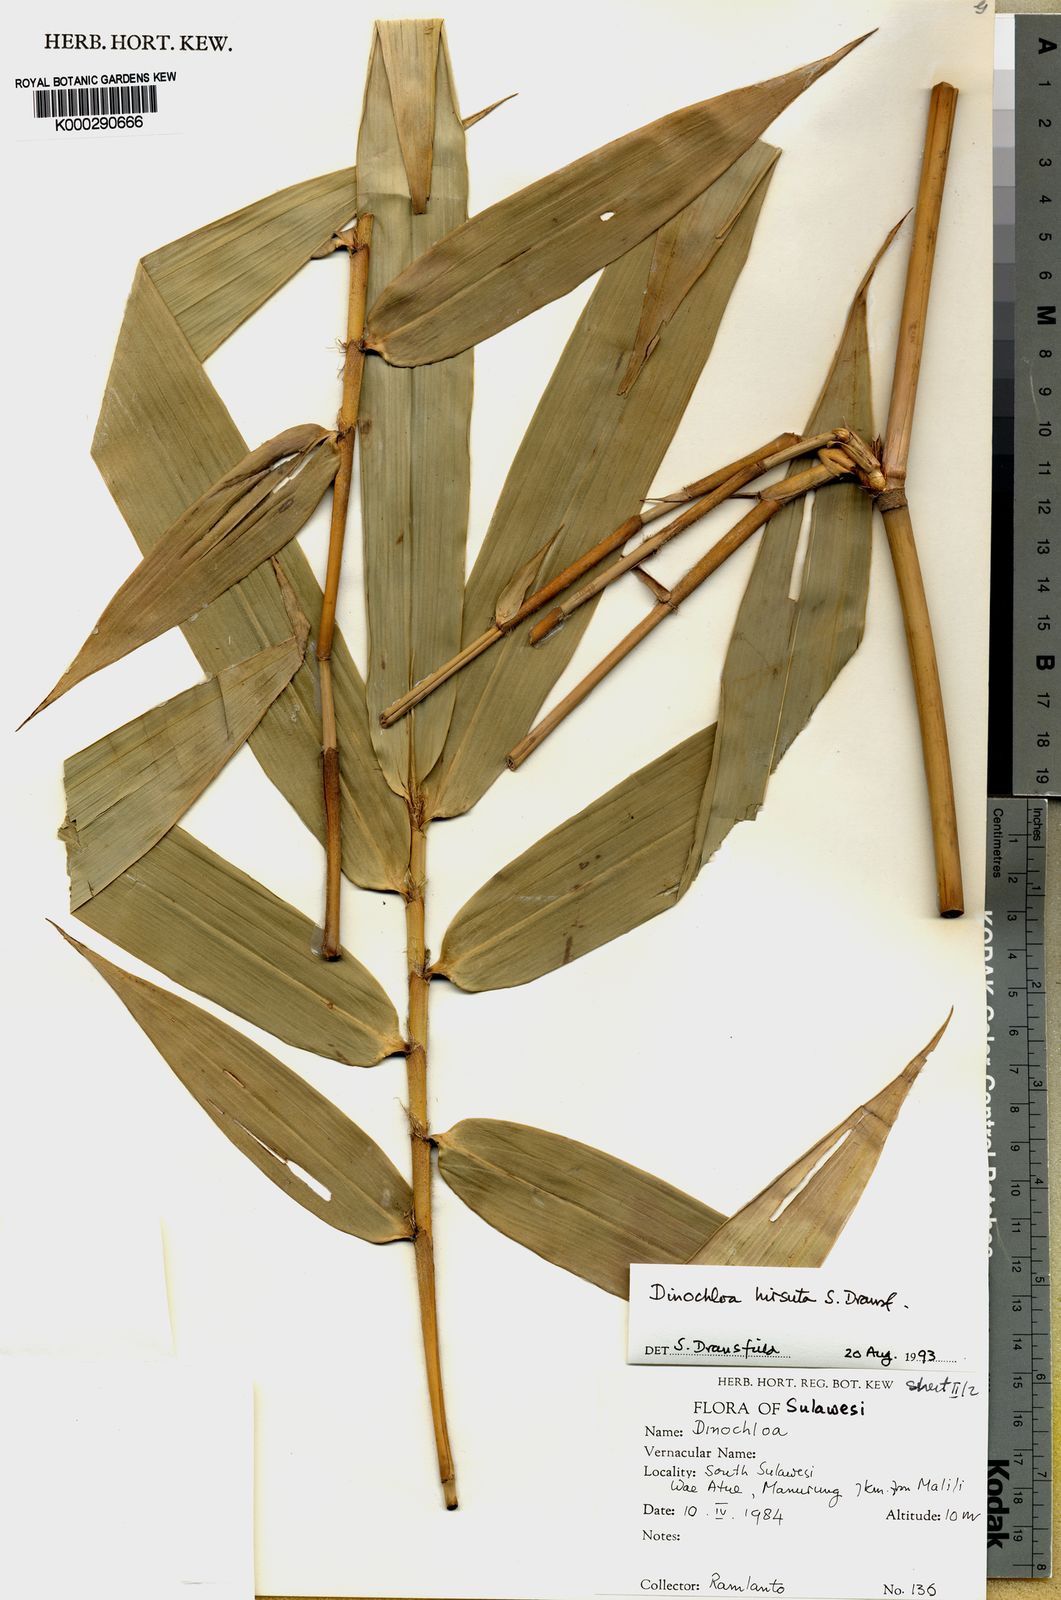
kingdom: Plantae
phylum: Tracheophyta
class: Liliopsida
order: Poales
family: Poaceae
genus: Dinochloa
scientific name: Dinochloa hirsuta
